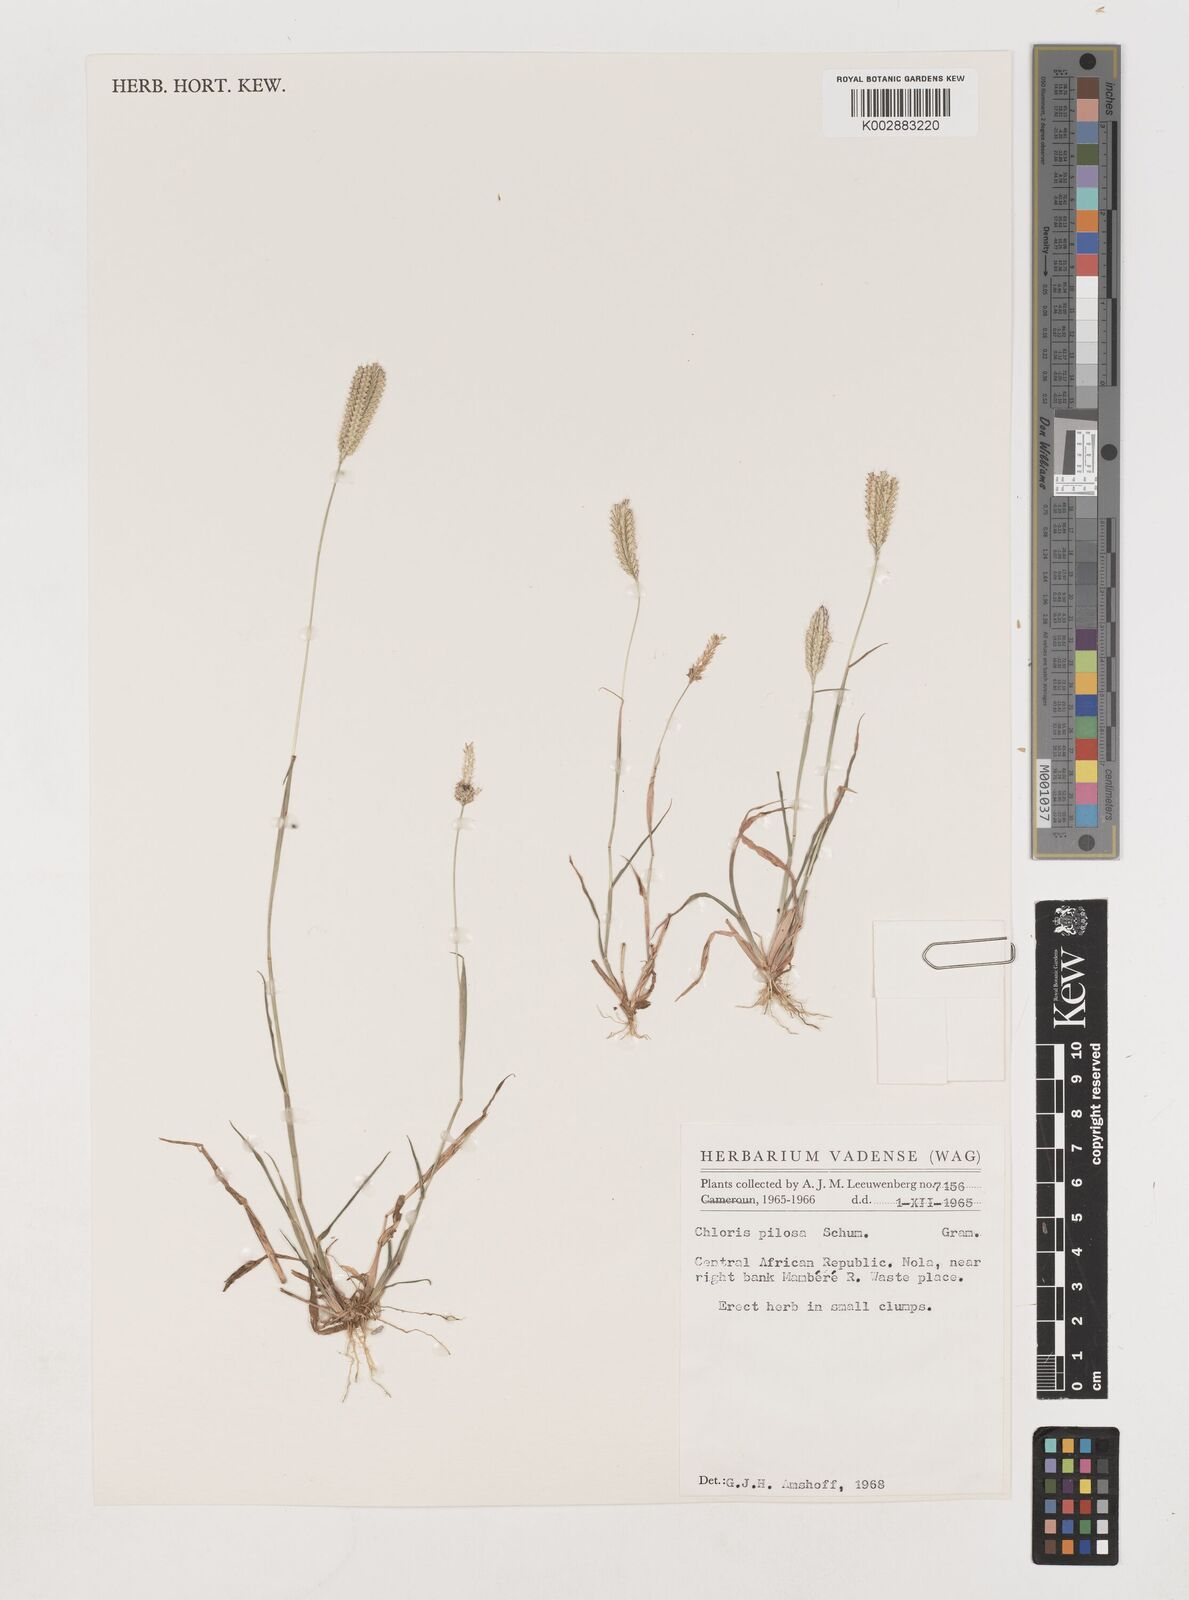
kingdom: Plantae
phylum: Tracheophyta
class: Liliopsida
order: Poales
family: Poaceae
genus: Chloris
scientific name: Chloris pilosa
